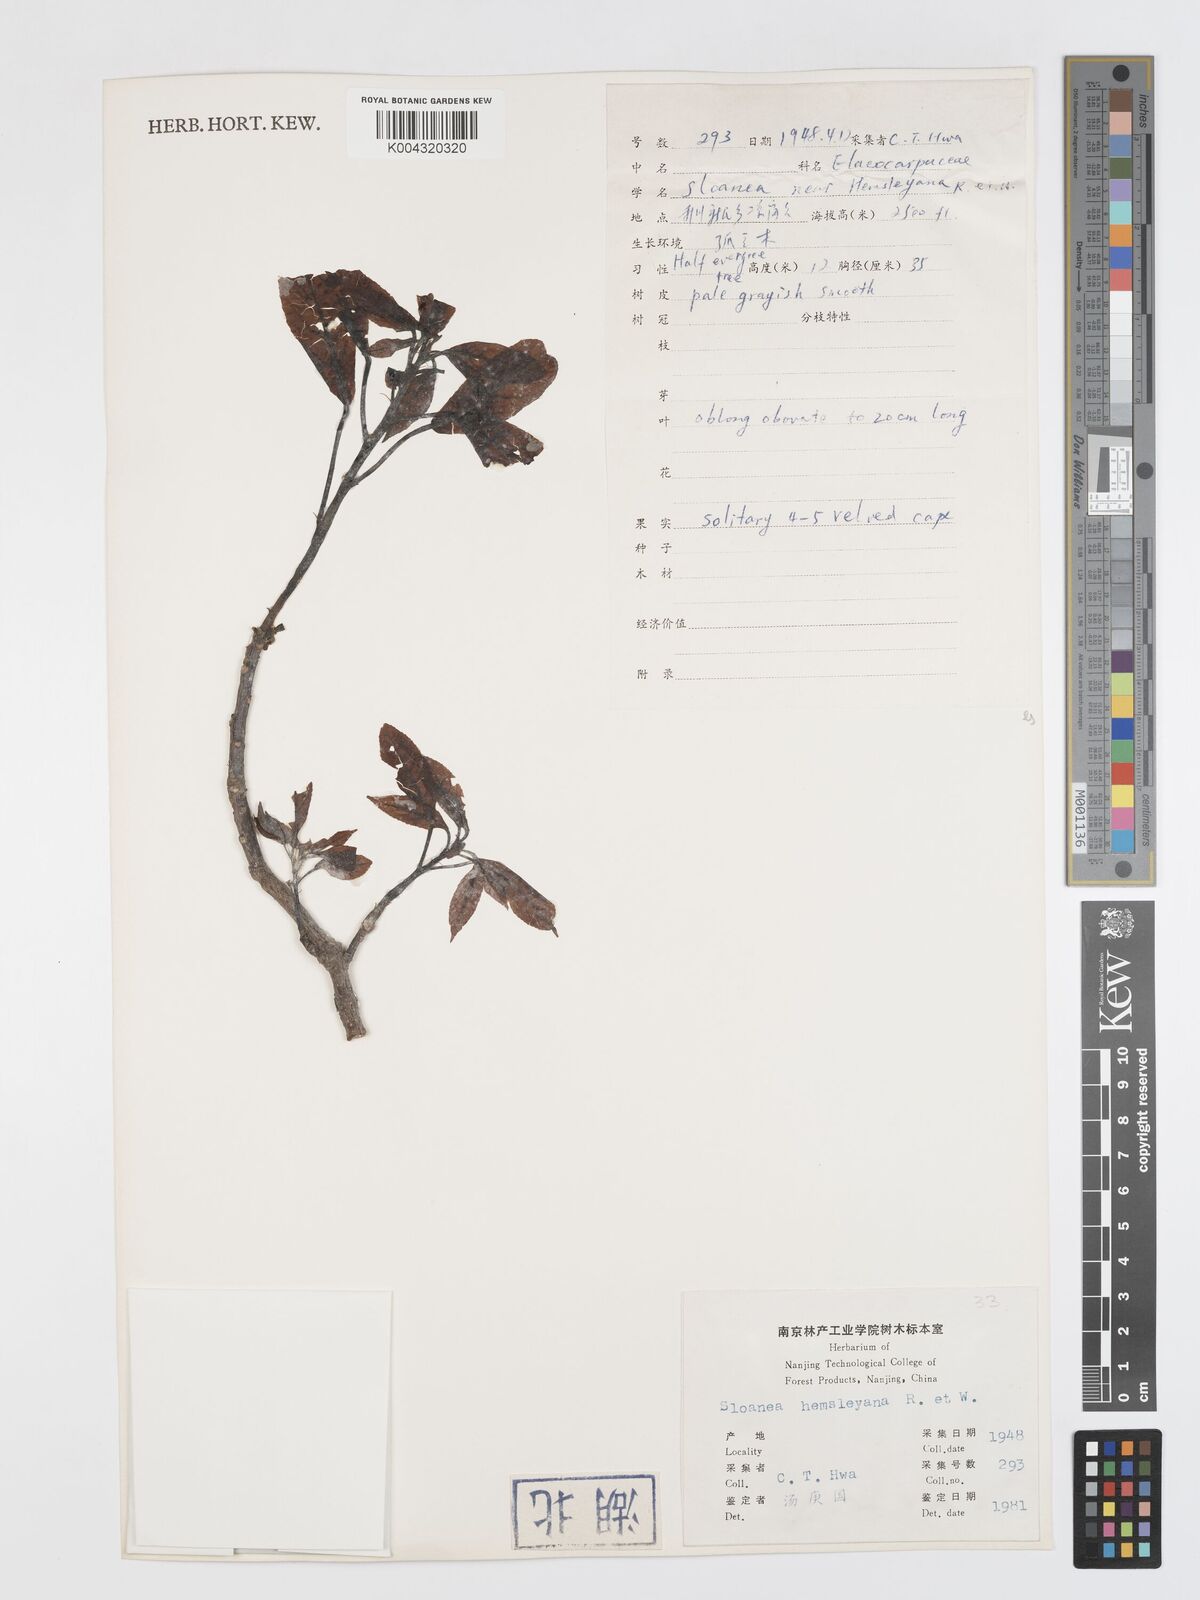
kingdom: Plantae
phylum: Tracheophyta
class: Magnoliopsida
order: Oxalidales
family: Elaeocarpaceae
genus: Sloanea
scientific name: Sloanea hemsleyana
